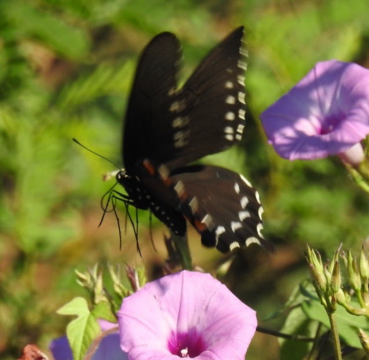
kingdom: Animalia
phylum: Arthropoda
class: Insecta
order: Lepidoptera
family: Papilionidae
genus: Battus
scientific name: Battus philenor
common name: Pipevine Swallowtail
